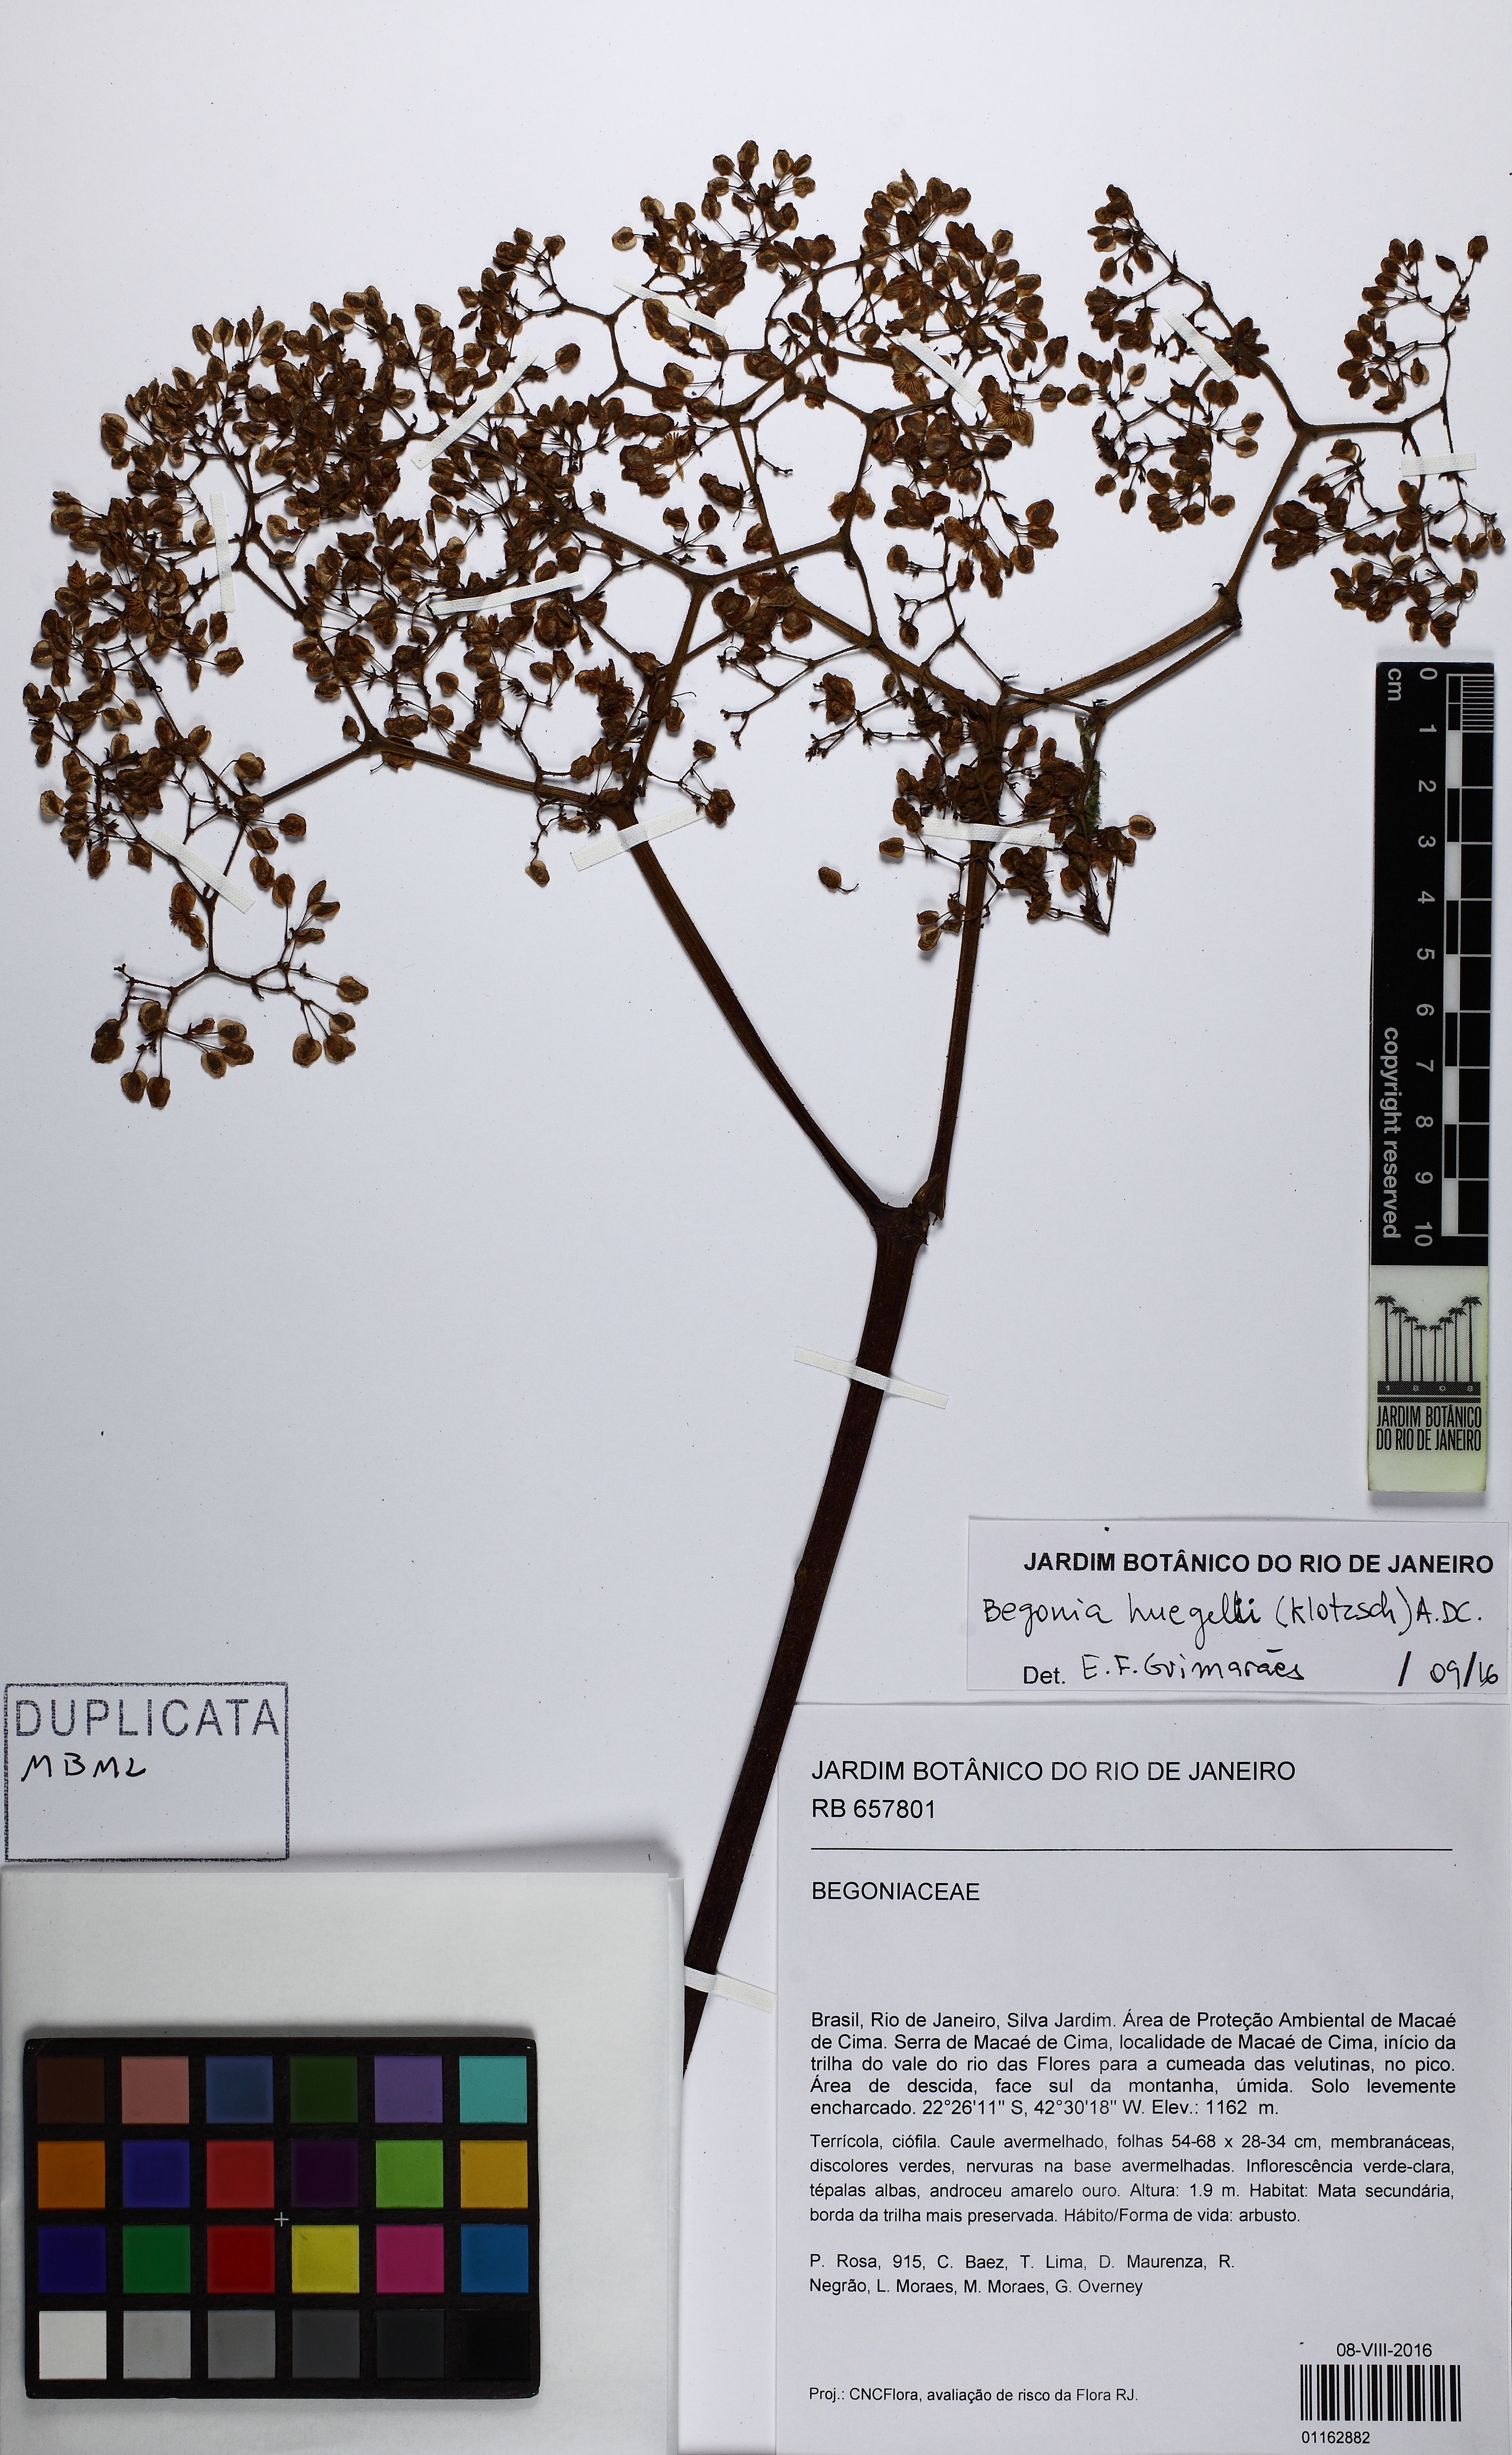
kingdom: Plantae
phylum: Tracheophyta
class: Magnoliopsida
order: Cucurbitales
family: Begoniaceae
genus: Begonia
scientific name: Begonia huegelii
